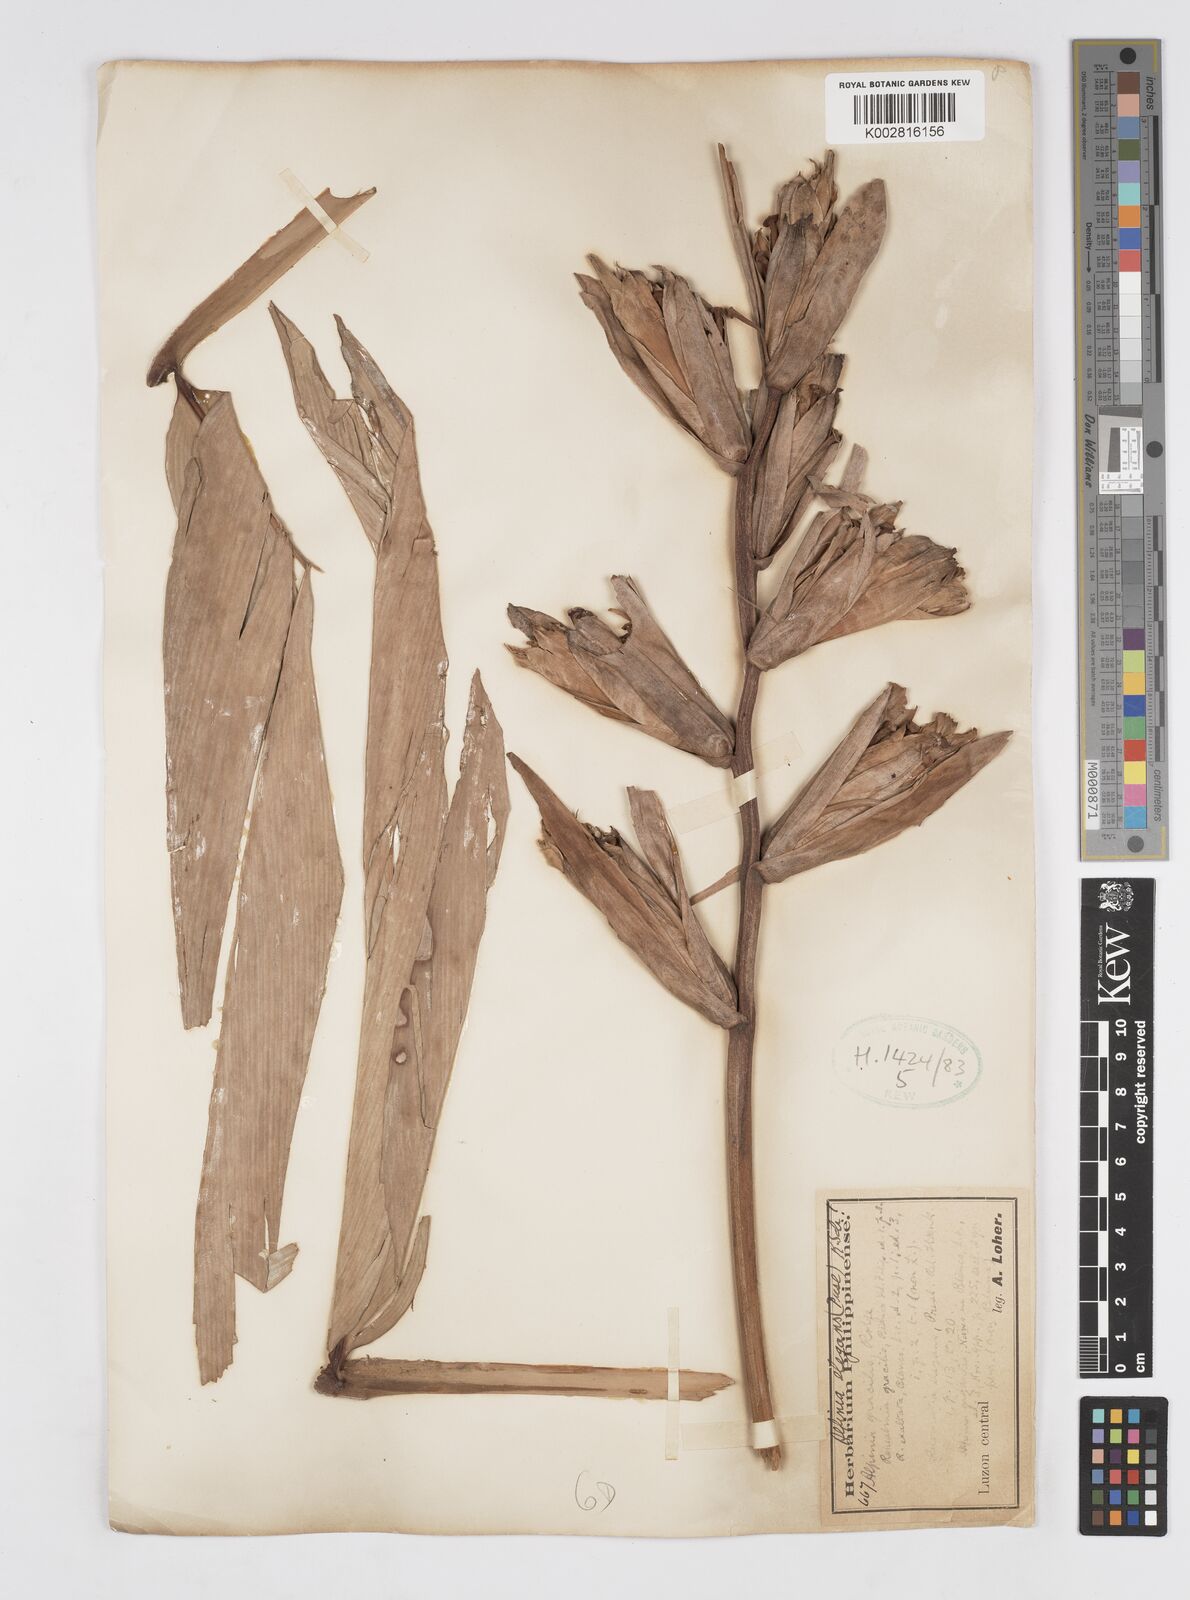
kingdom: Plantae
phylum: Tracheophyta
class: Liliopsida
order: Zingiberales
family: Zingiberaceae
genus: Alpinia
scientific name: Alpinia elegans
